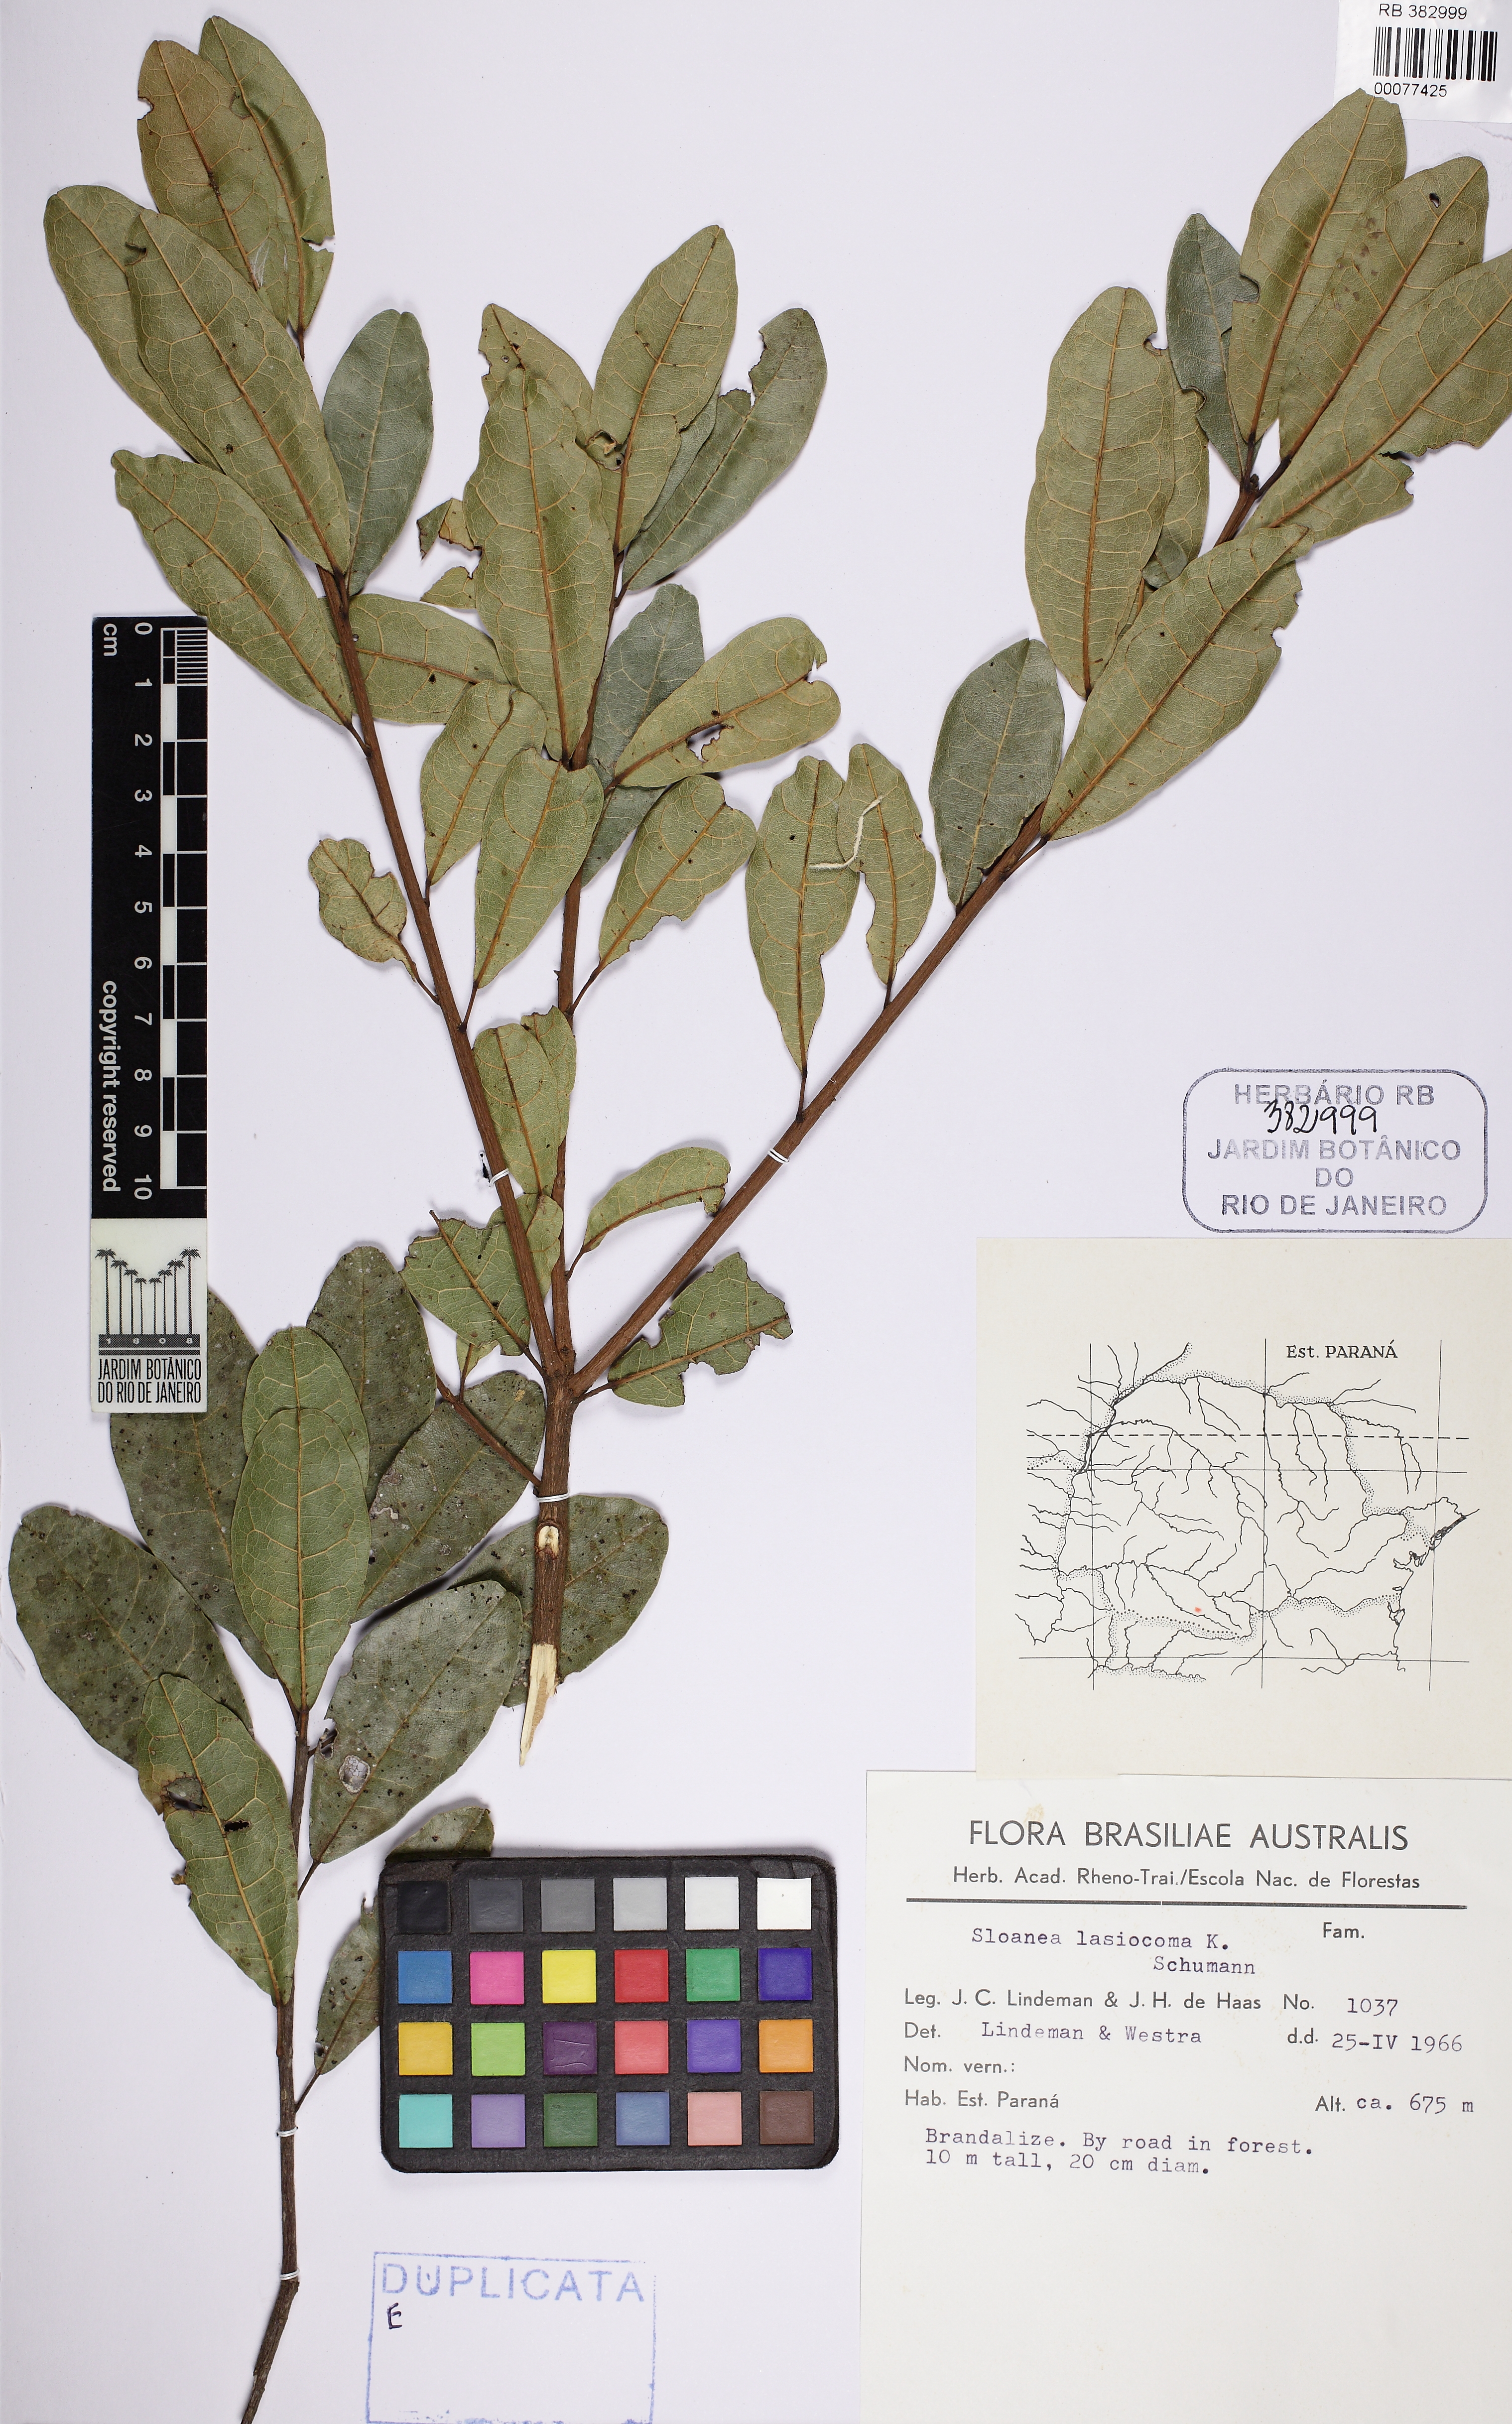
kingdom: Plantae
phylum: Tracheophyta
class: Magnoliopsida
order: Oxalidales
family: Elaeocarpaceae
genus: Sloanea
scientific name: Sloanea hirsuta
